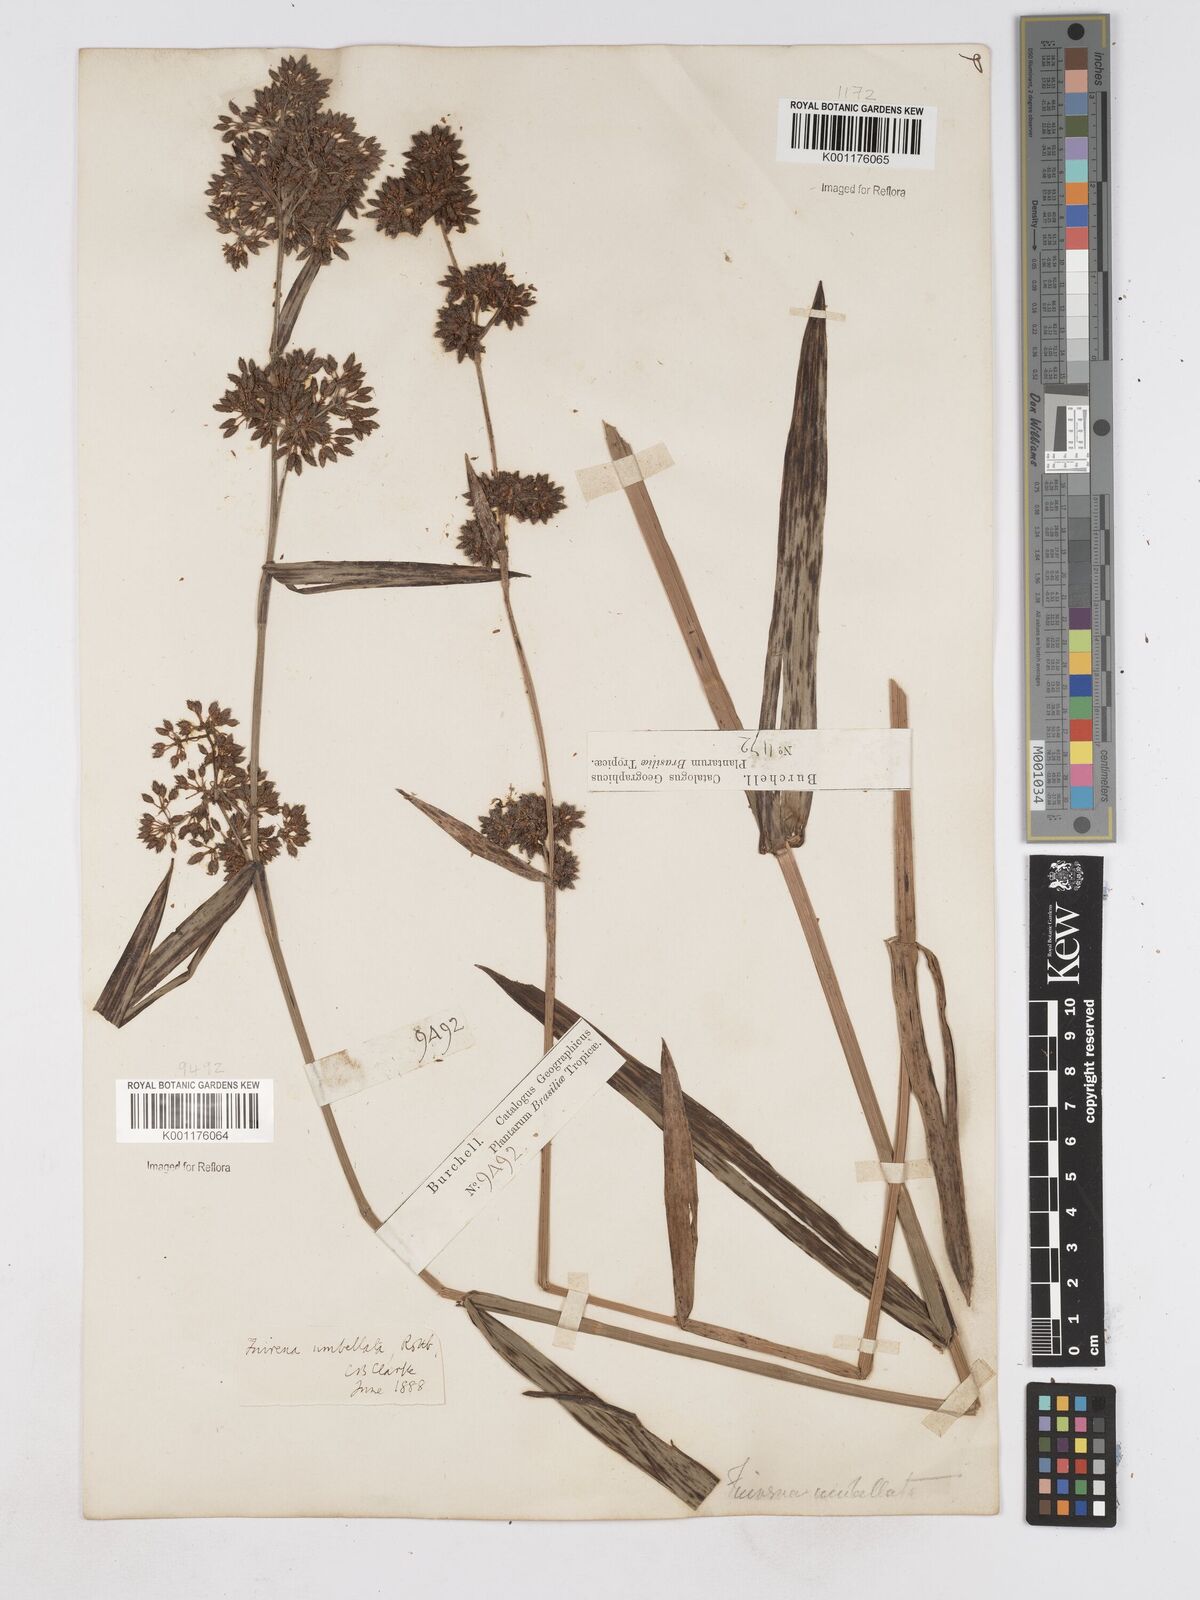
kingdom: Plantae
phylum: Tracheophyta
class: Liliopsida
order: Poales
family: Cyperaceae
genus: Fuirena
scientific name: Fuirena umbellata
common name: Yefen
